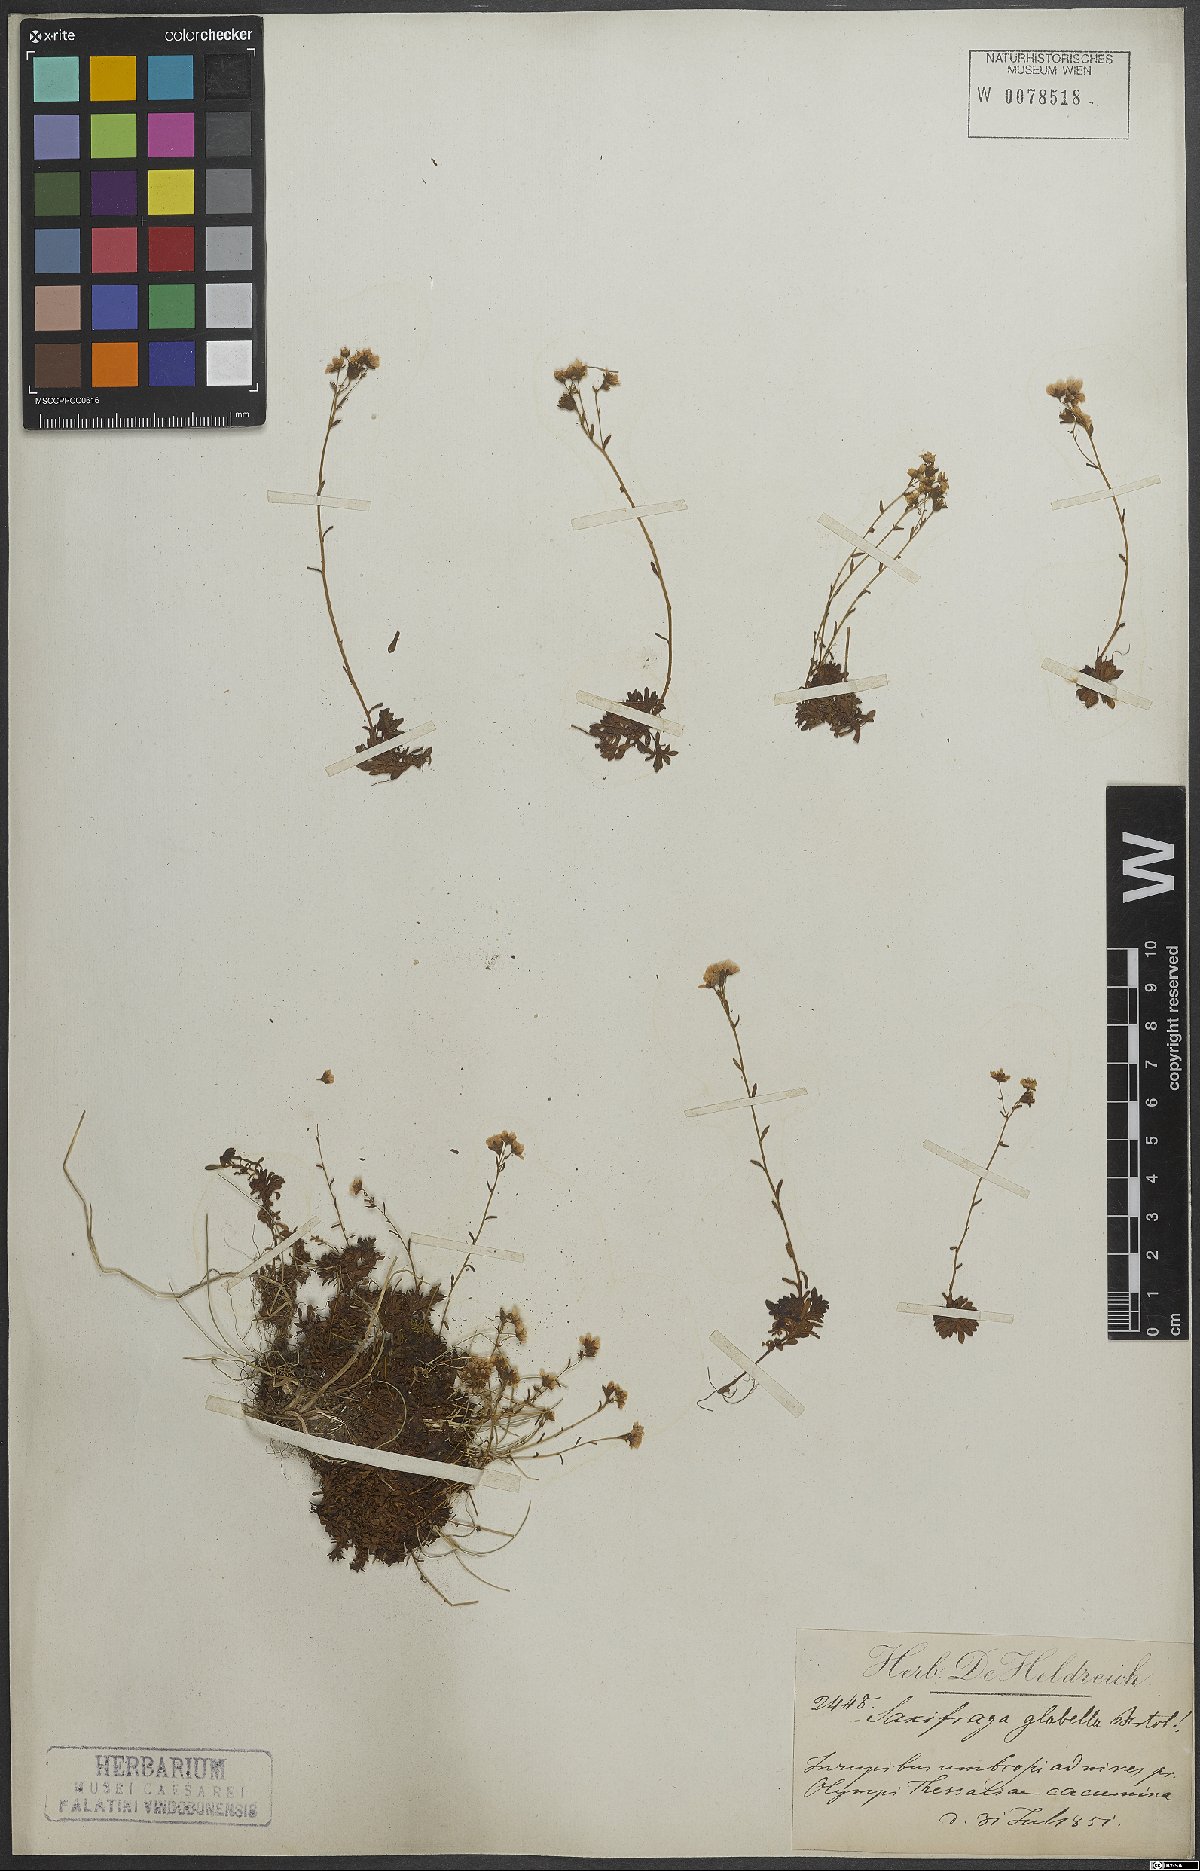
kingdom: Plantae
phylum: Tracheophyta
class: Magnoliopsida
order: Saxifragales
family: Saxifragaceae
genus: Saxifraga
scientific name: Saxifraga glabella
